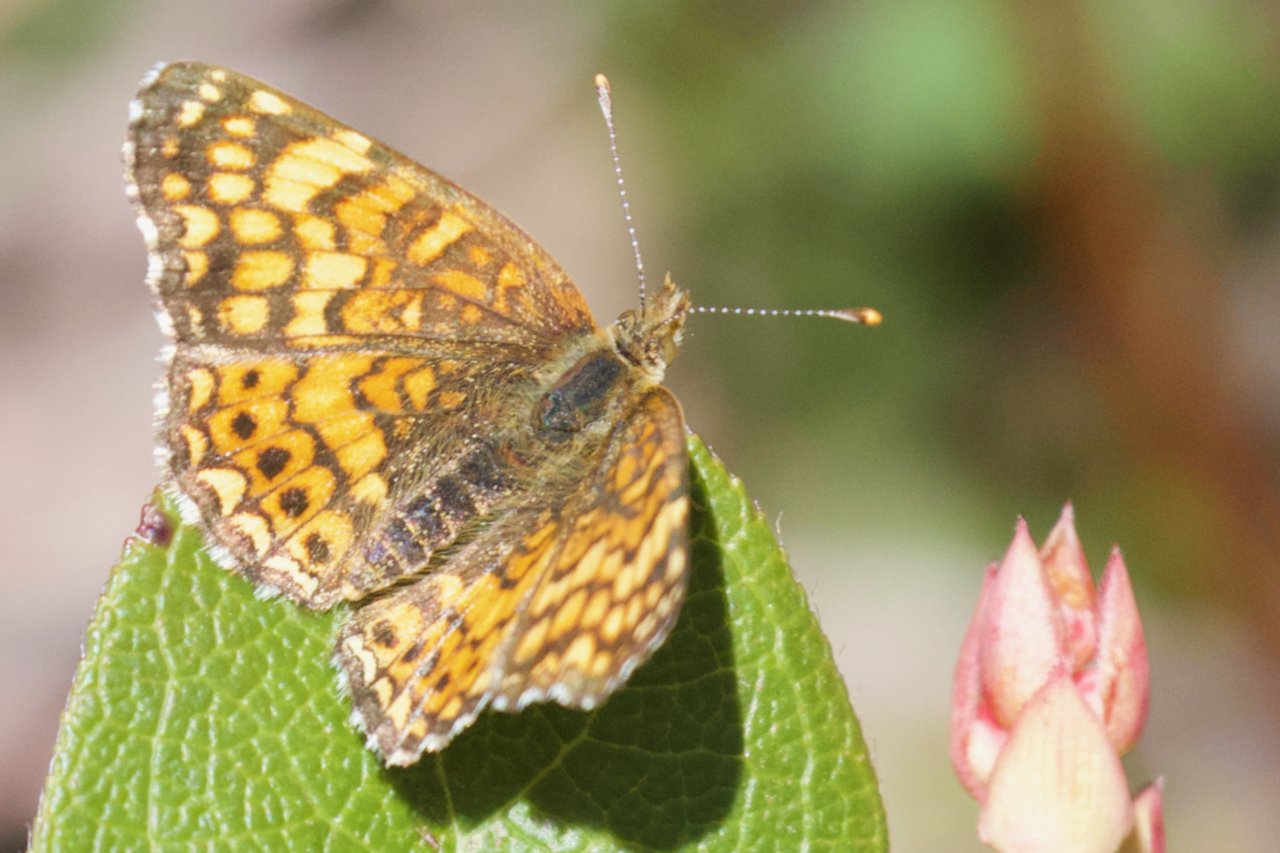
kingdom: Animalia
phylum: Arthropoda
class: Insecta
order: Lepidoptera
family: Nymphalidae
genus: Eresia
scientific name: Eresia aveyrona
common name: Mylitta Crescent
